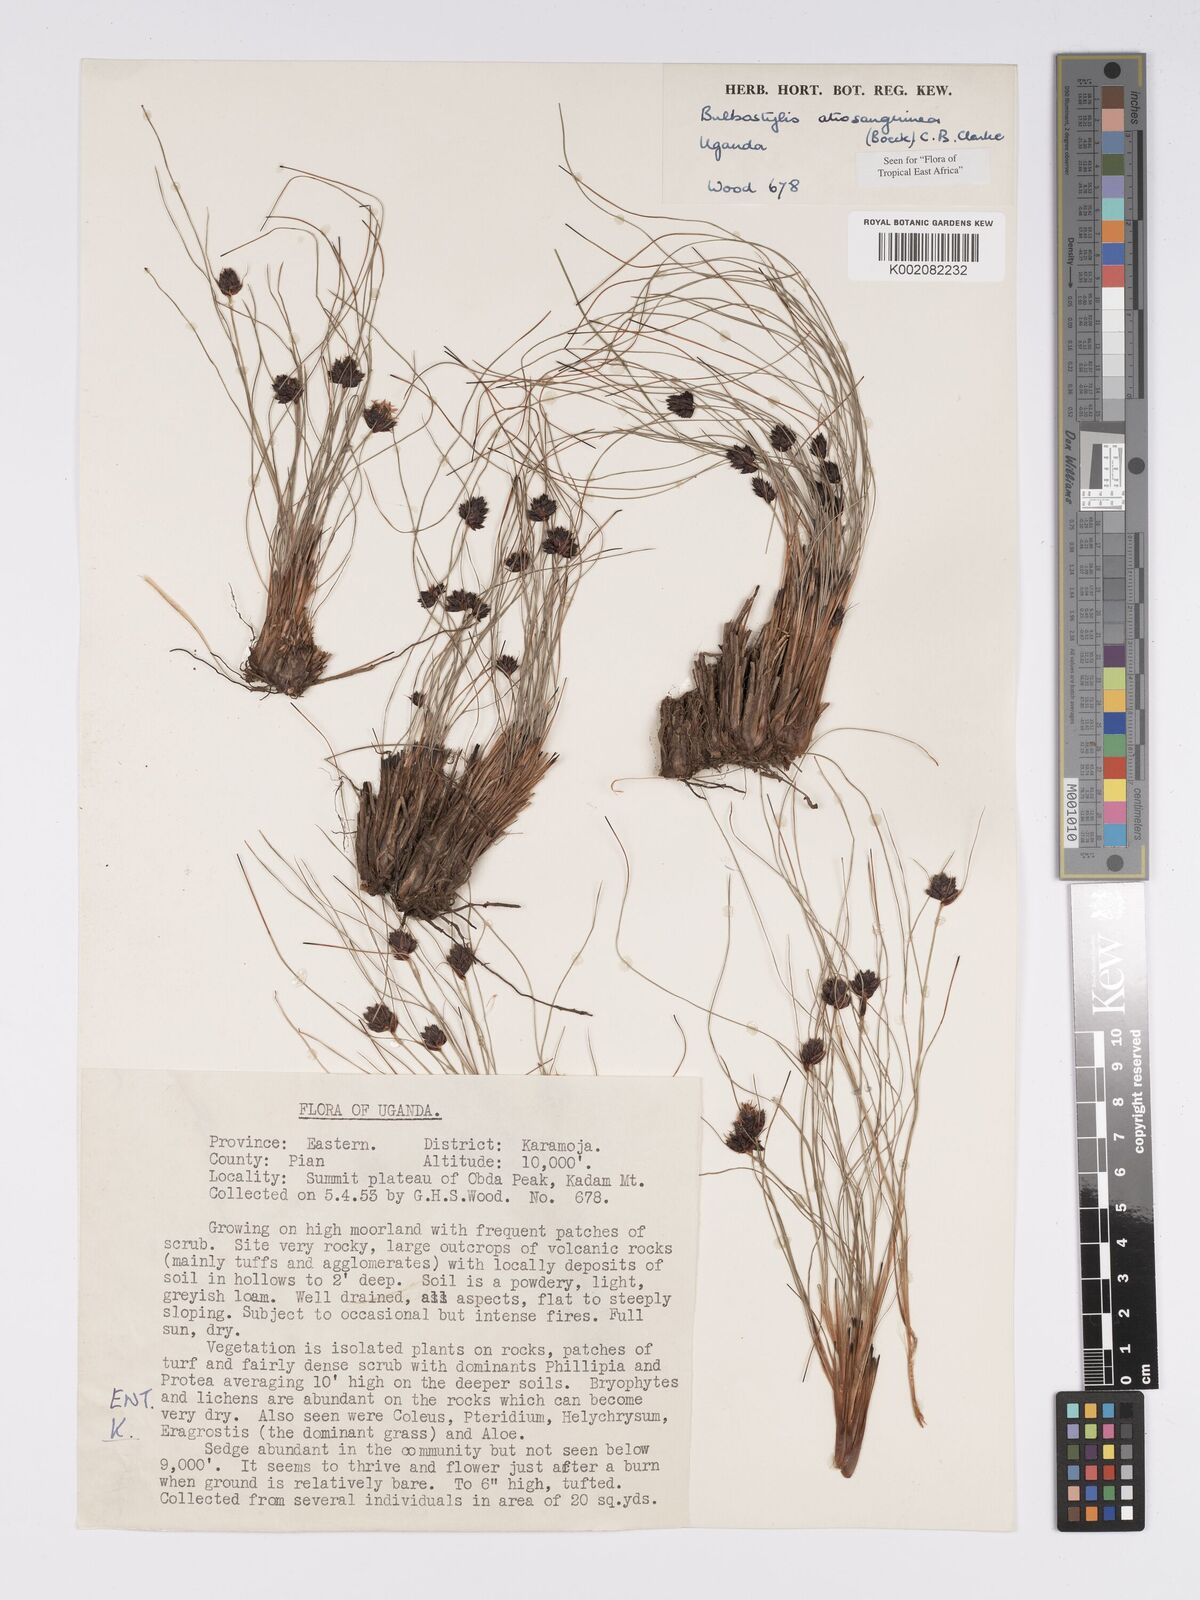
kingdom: Plantae
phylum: Tracheophyta
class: Liliopsida
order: Poales
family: Cyperaceae
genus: Bulbostylis
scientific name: Bulbostylis atrosanguinea
